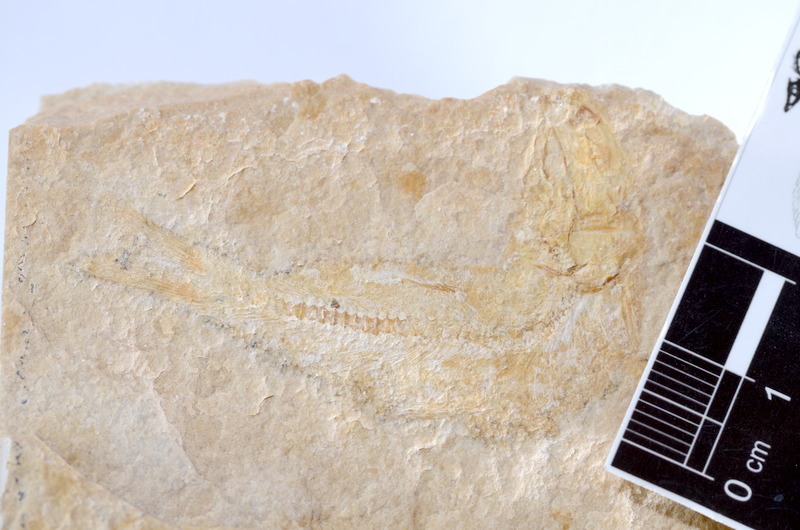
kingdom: Animalia
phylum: Chordata
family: Ascalaboidae
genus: Tharsis
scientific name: Tharsis dubius
